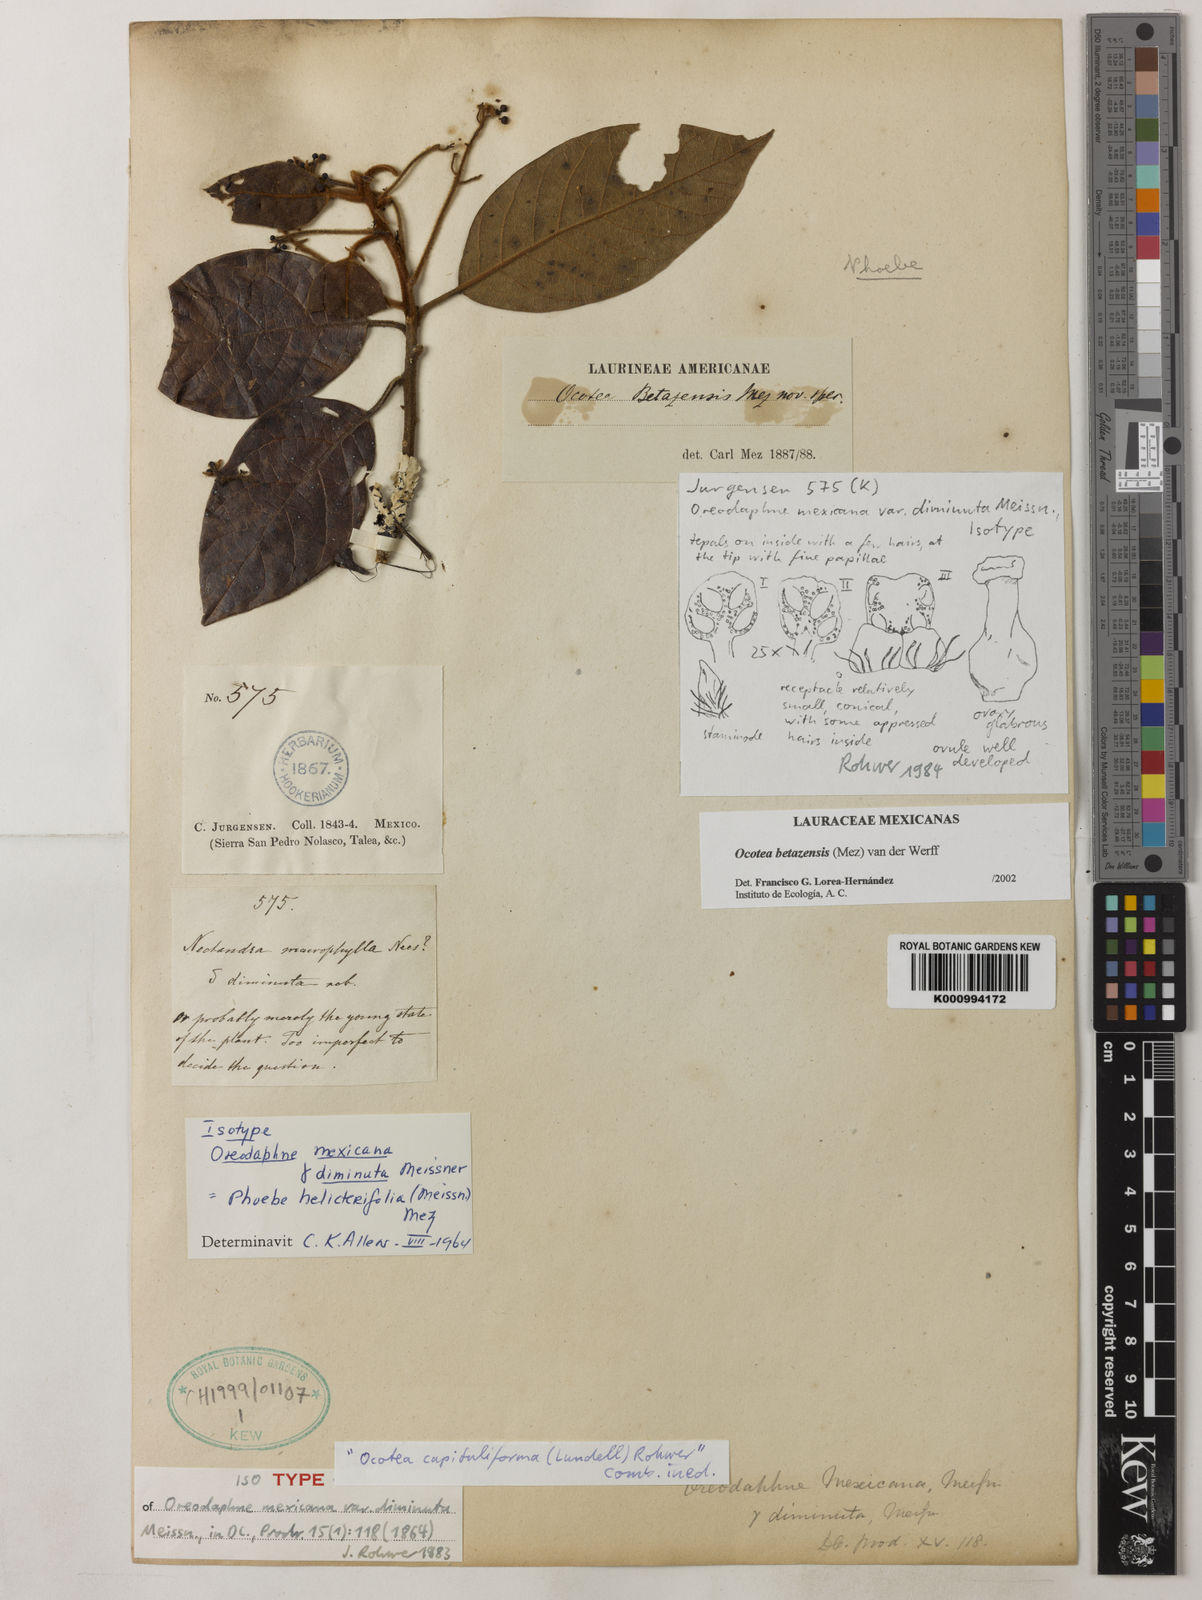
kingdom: Plantae
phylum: Tracheophyta
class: Magnoliopsida
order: Laurales
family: Lauraceae
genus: Ocotea
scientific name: Ocotea betazensis
